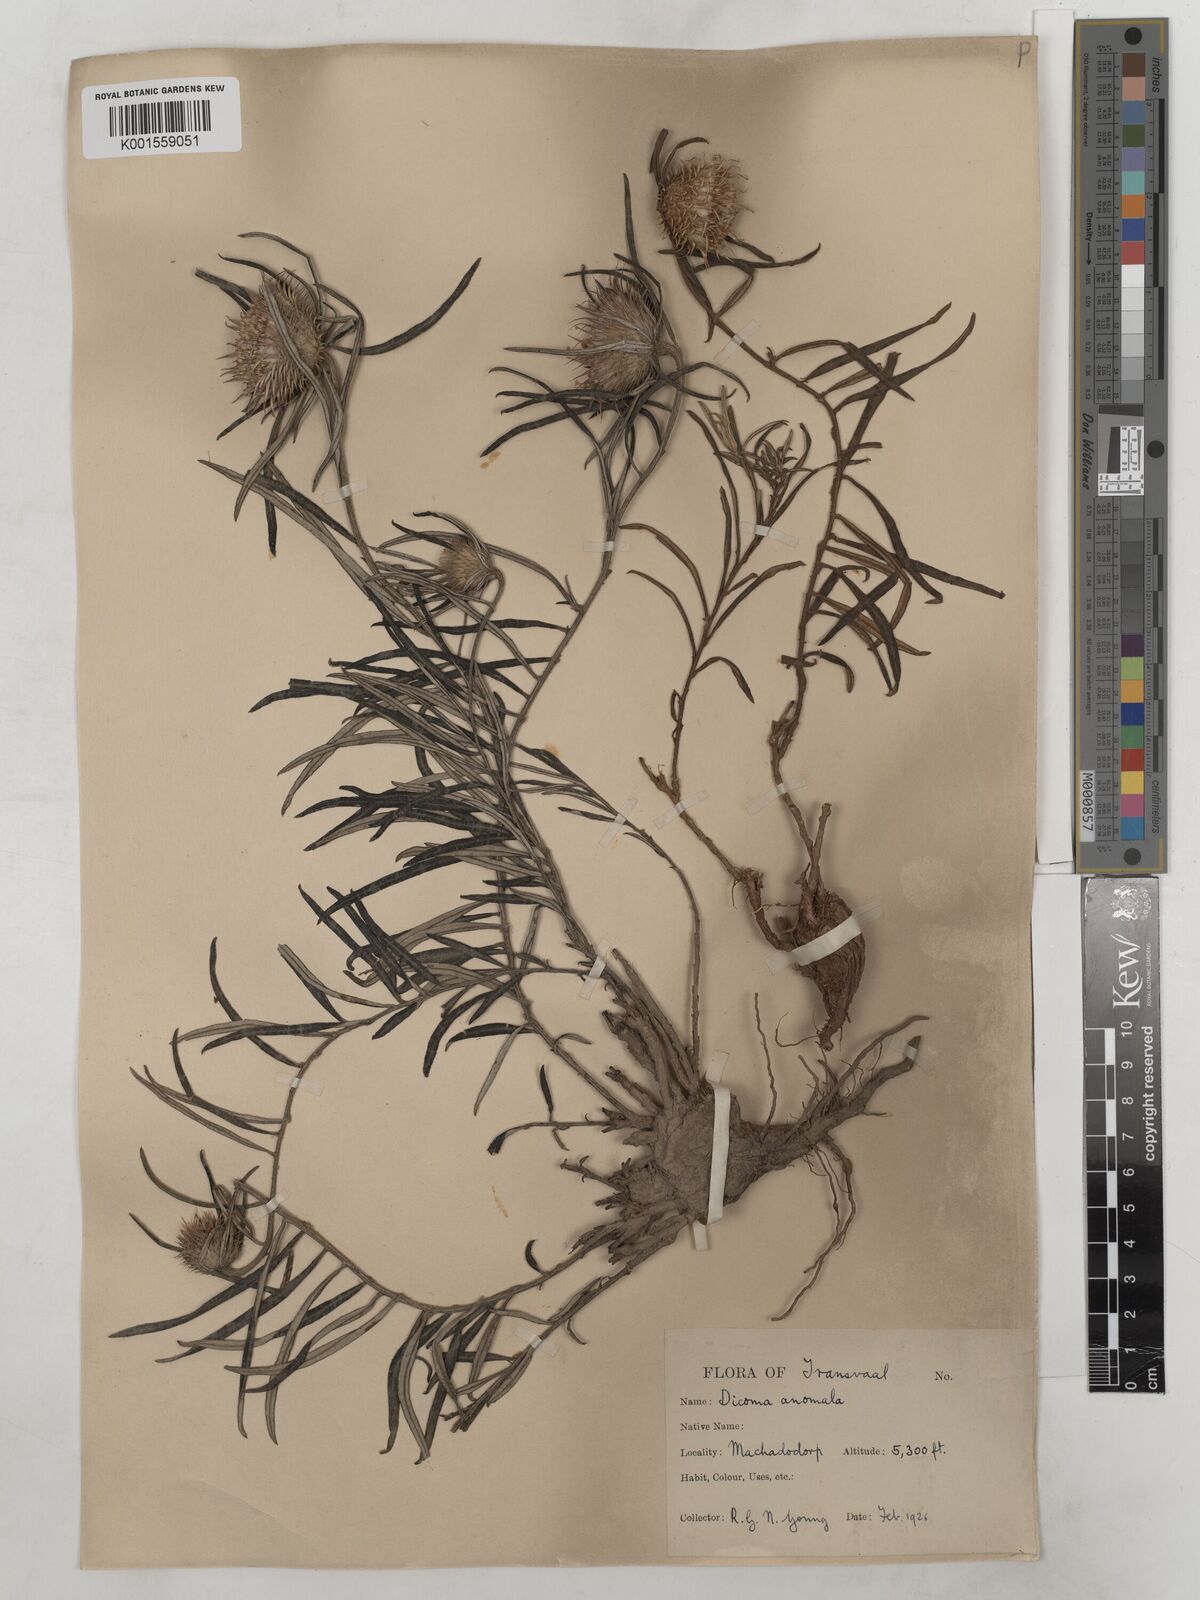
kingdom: Plantae
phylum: Tracheophyta
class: Magnoliopsida
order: Asterales
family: Asteraceae
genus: Dicoma
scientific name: Dicoma anomala
